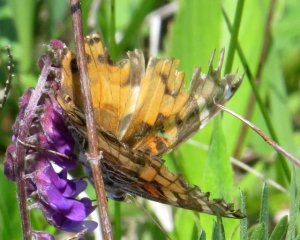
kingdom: Animalia
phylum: Arthropoda
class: Insecta
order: Lepidoptera
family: Nymphalidae
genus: Vanessa
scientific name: Vanessa virginiensis
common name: American Lady
